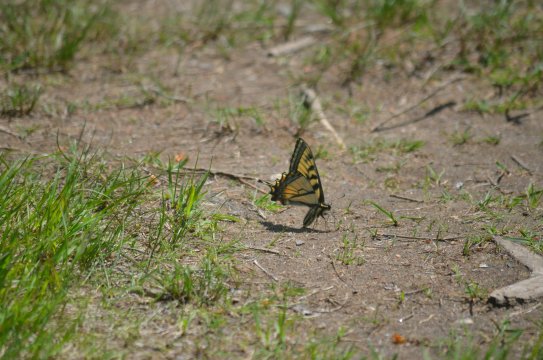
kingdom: Animalia
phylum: Arthropoda
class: Insecta
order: Lepidoptera
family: Papilionidae
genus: Pterourus
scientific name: Pterourus canadensis
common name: Canadian Tiger Swallowtail
